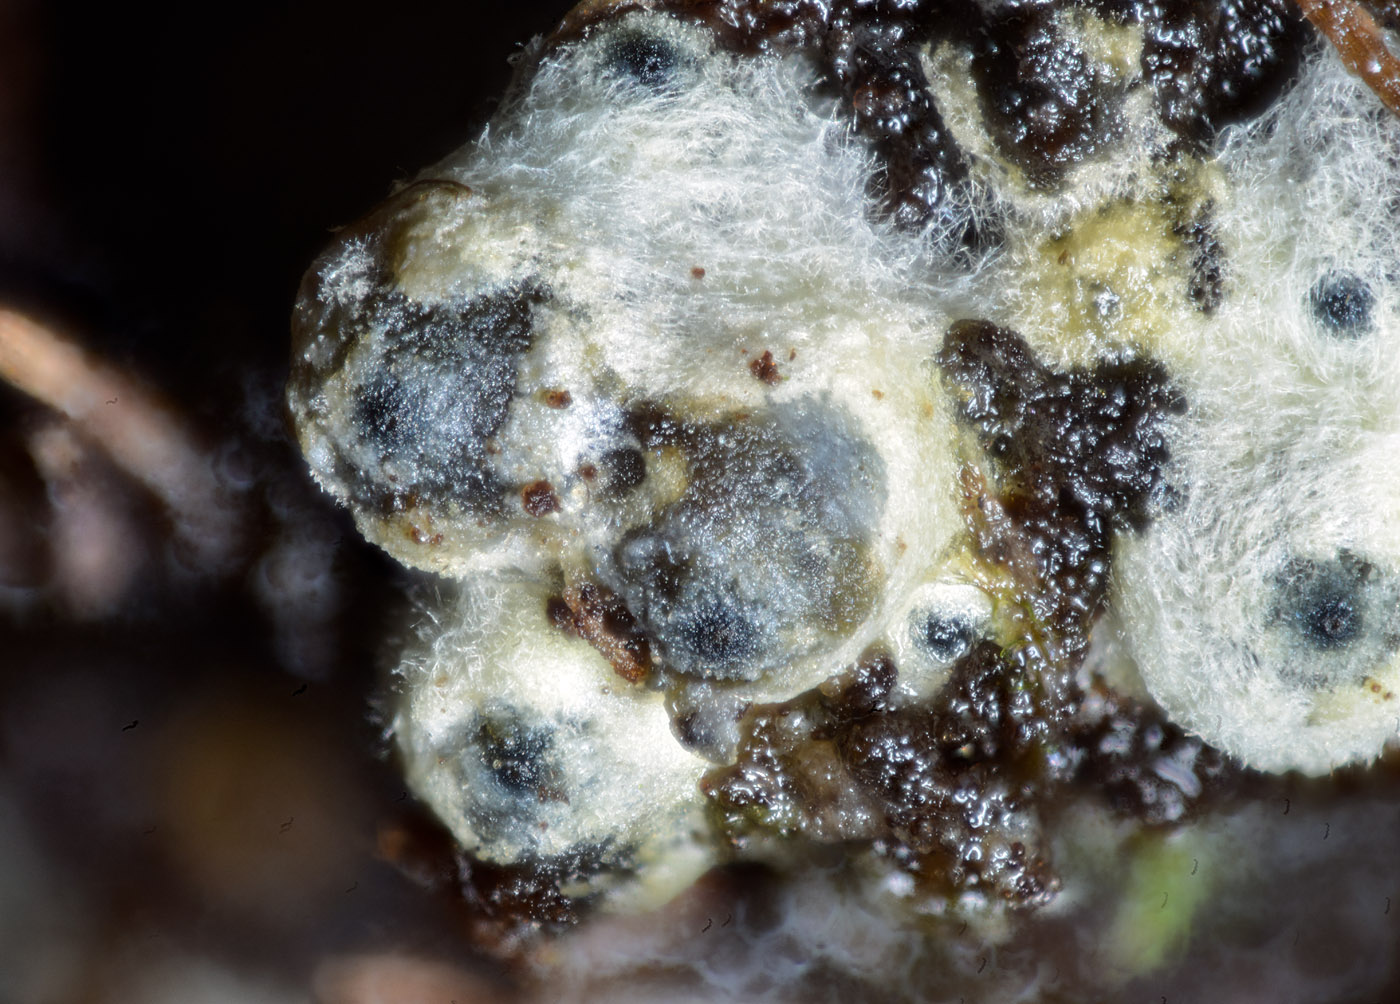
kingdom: Fungi
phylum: Ascomycota
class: Sordariomycetes
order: Sordariales
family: Lasiosphaeriaceae
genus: Lasiosphaeria
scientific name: Lasiosphaeria ovina
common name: fåre-kernesvamp
